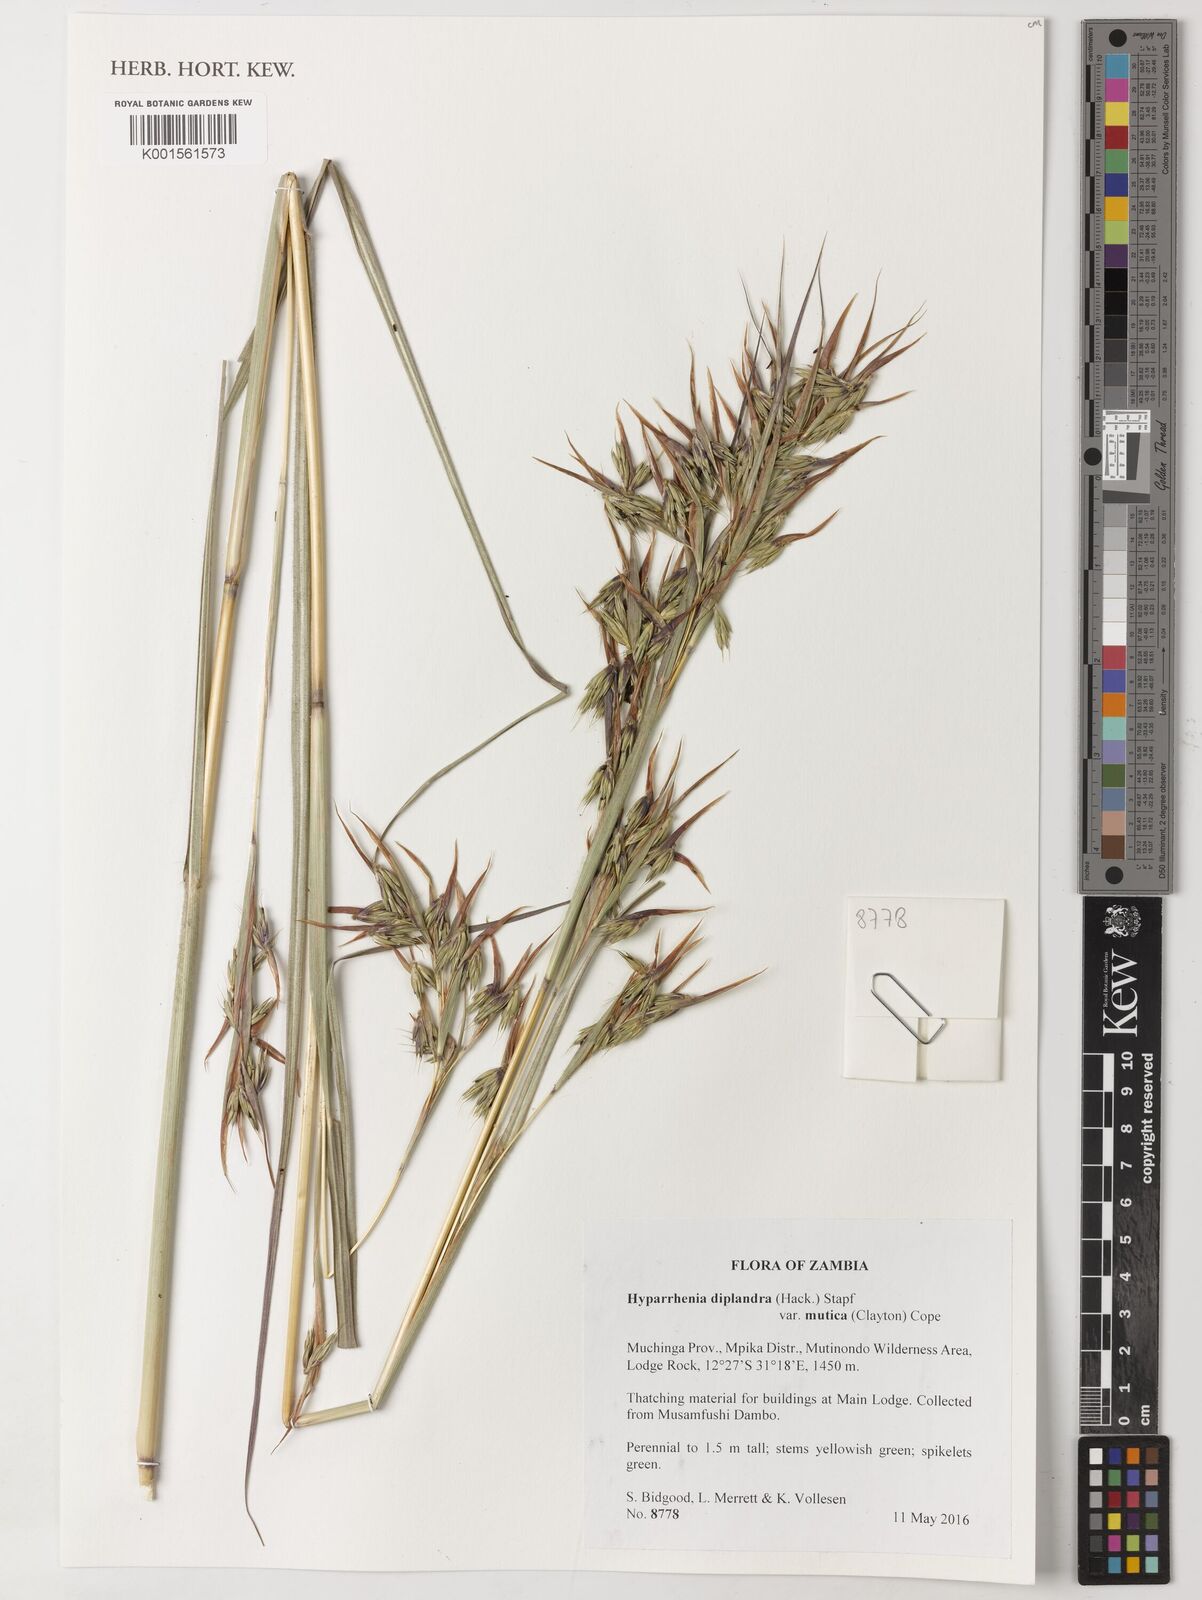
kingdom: Plantae
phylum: Tracheophyta
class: Liliopsida
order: Poales
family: Poaceae
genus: Hyparrhenia
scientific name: Hyparrhenia diplandra
